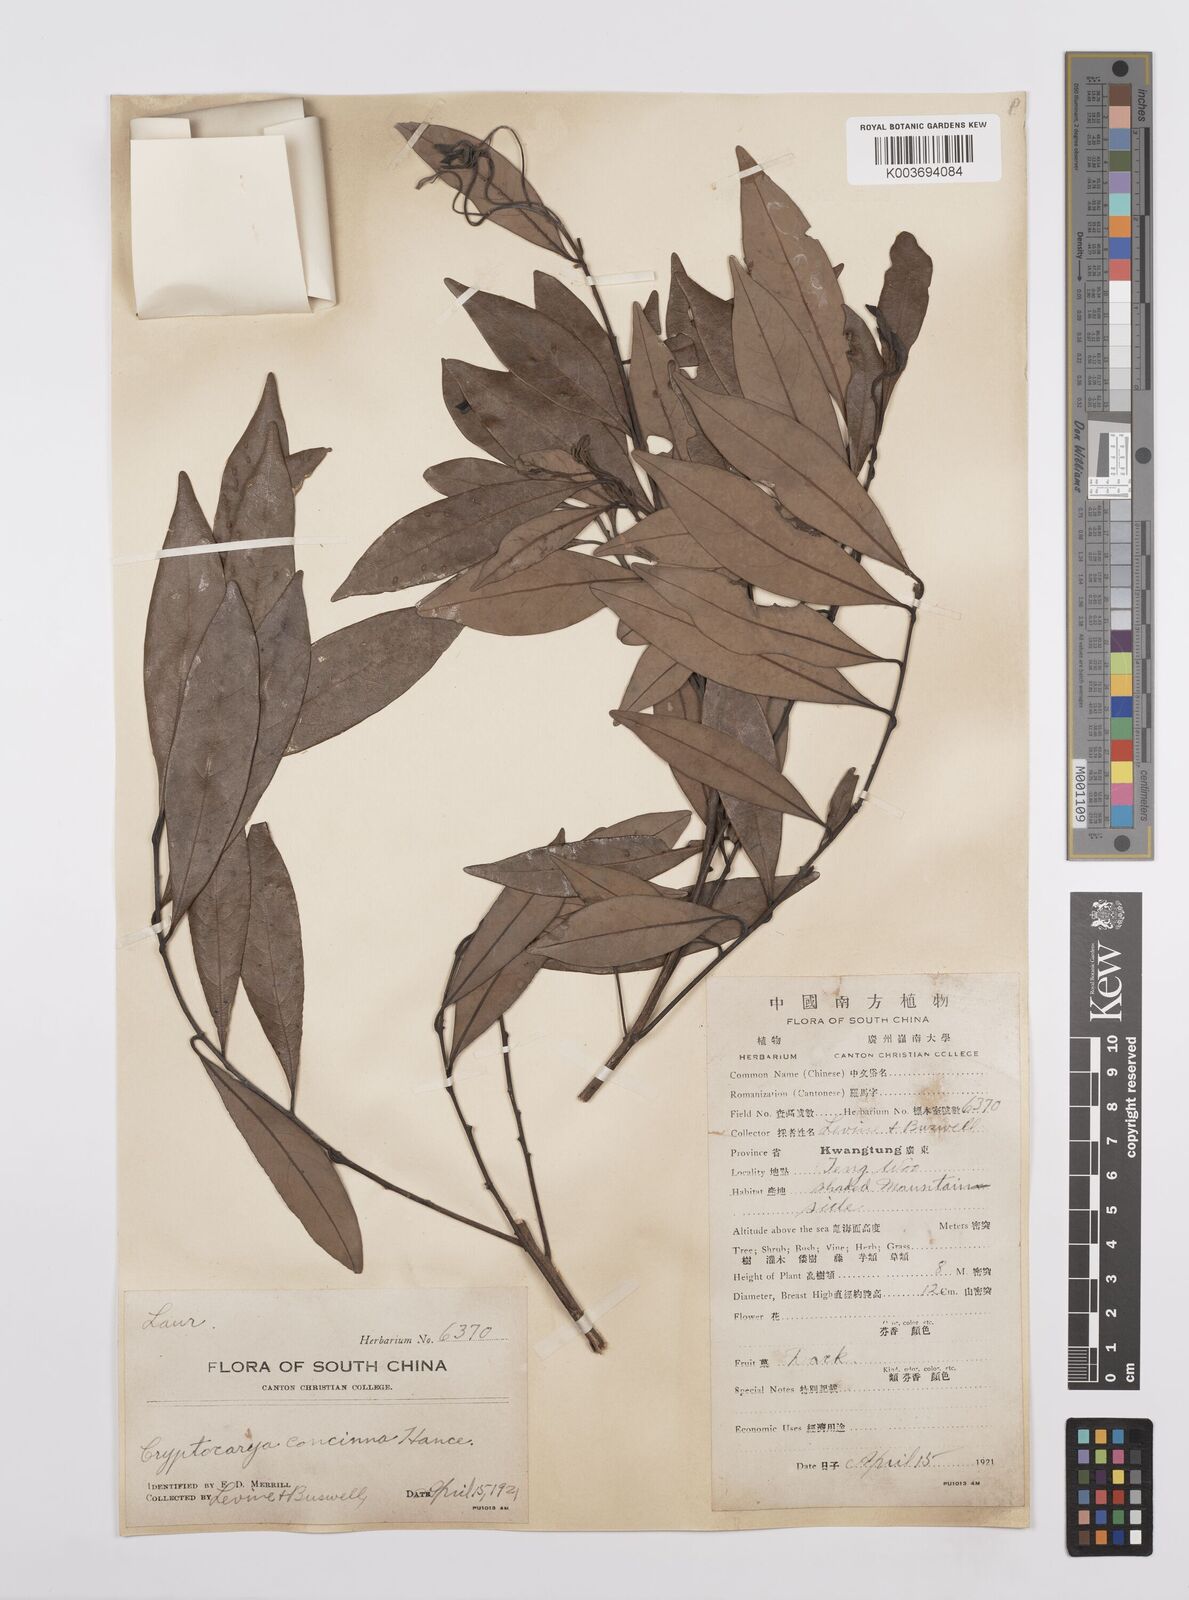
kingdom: Plantae
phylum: Tracheophyta
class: Magnoliopsida
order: Laurales
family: Lauraceae
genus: Cryptocarya
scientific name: Cryptocarya concinna
